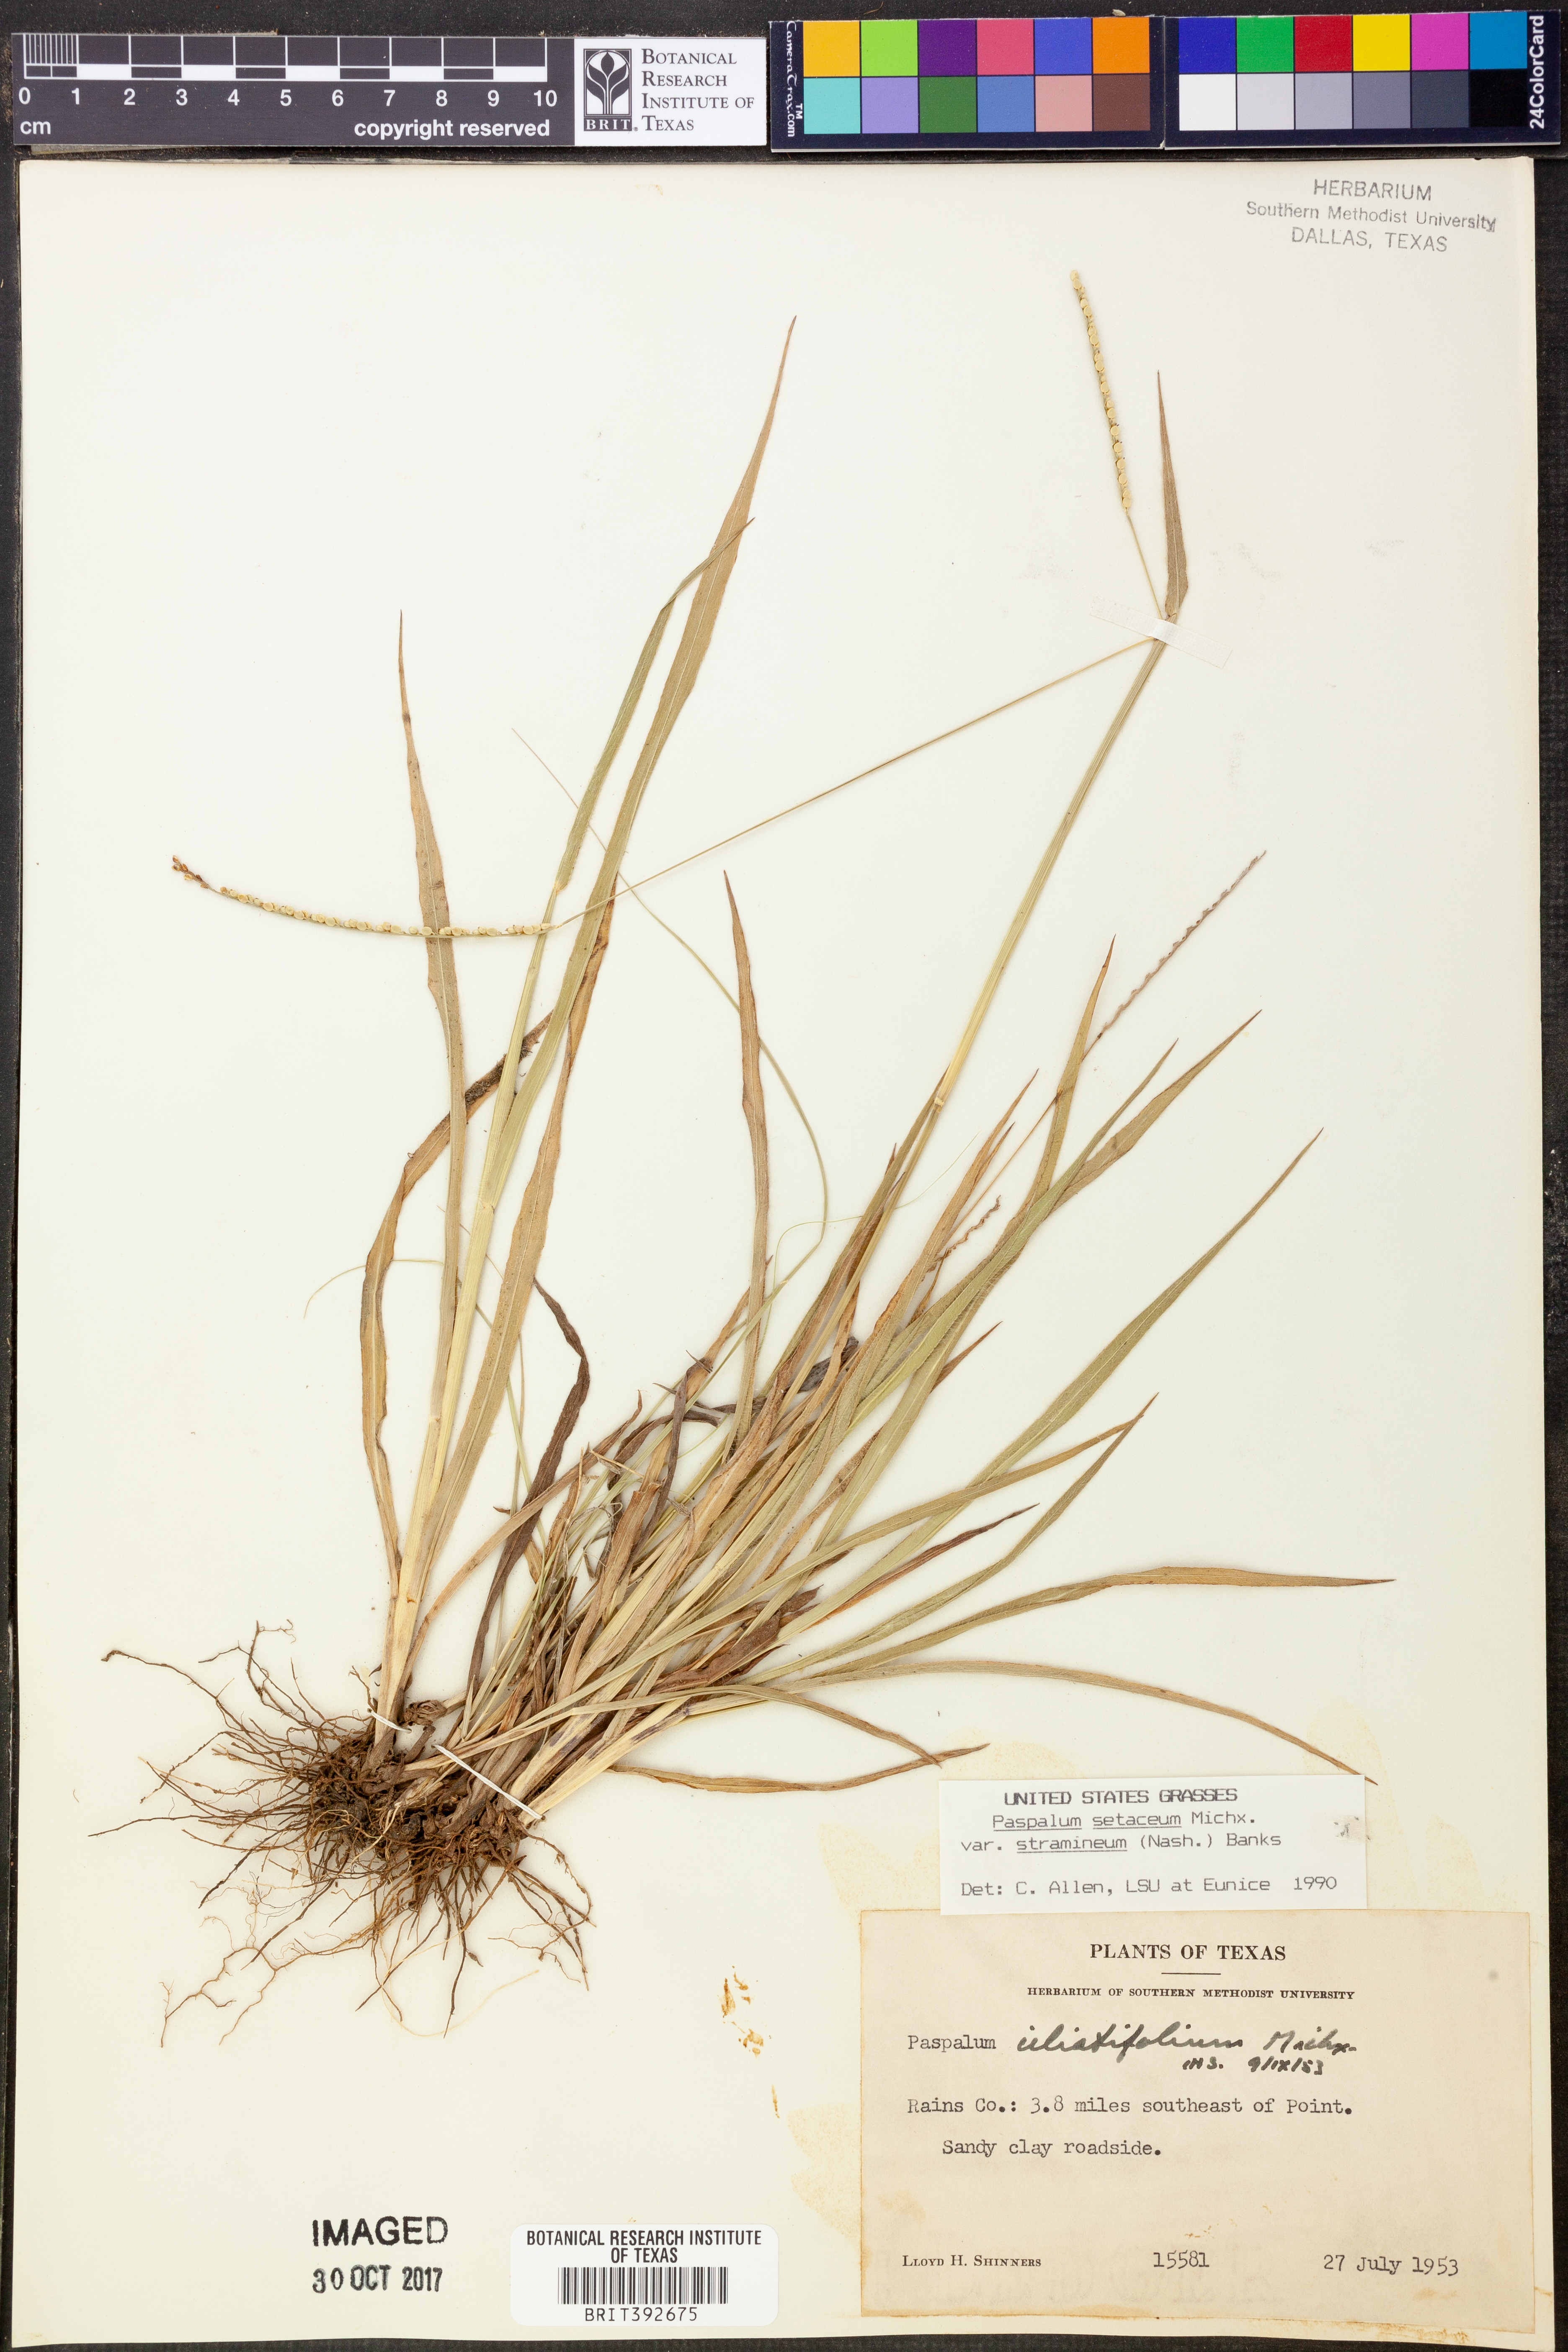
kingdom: Plantae
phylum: Tracheophyta
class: Liliopsida
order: Poales
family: Poaceae
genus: Paspalum
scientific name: Paspalum
